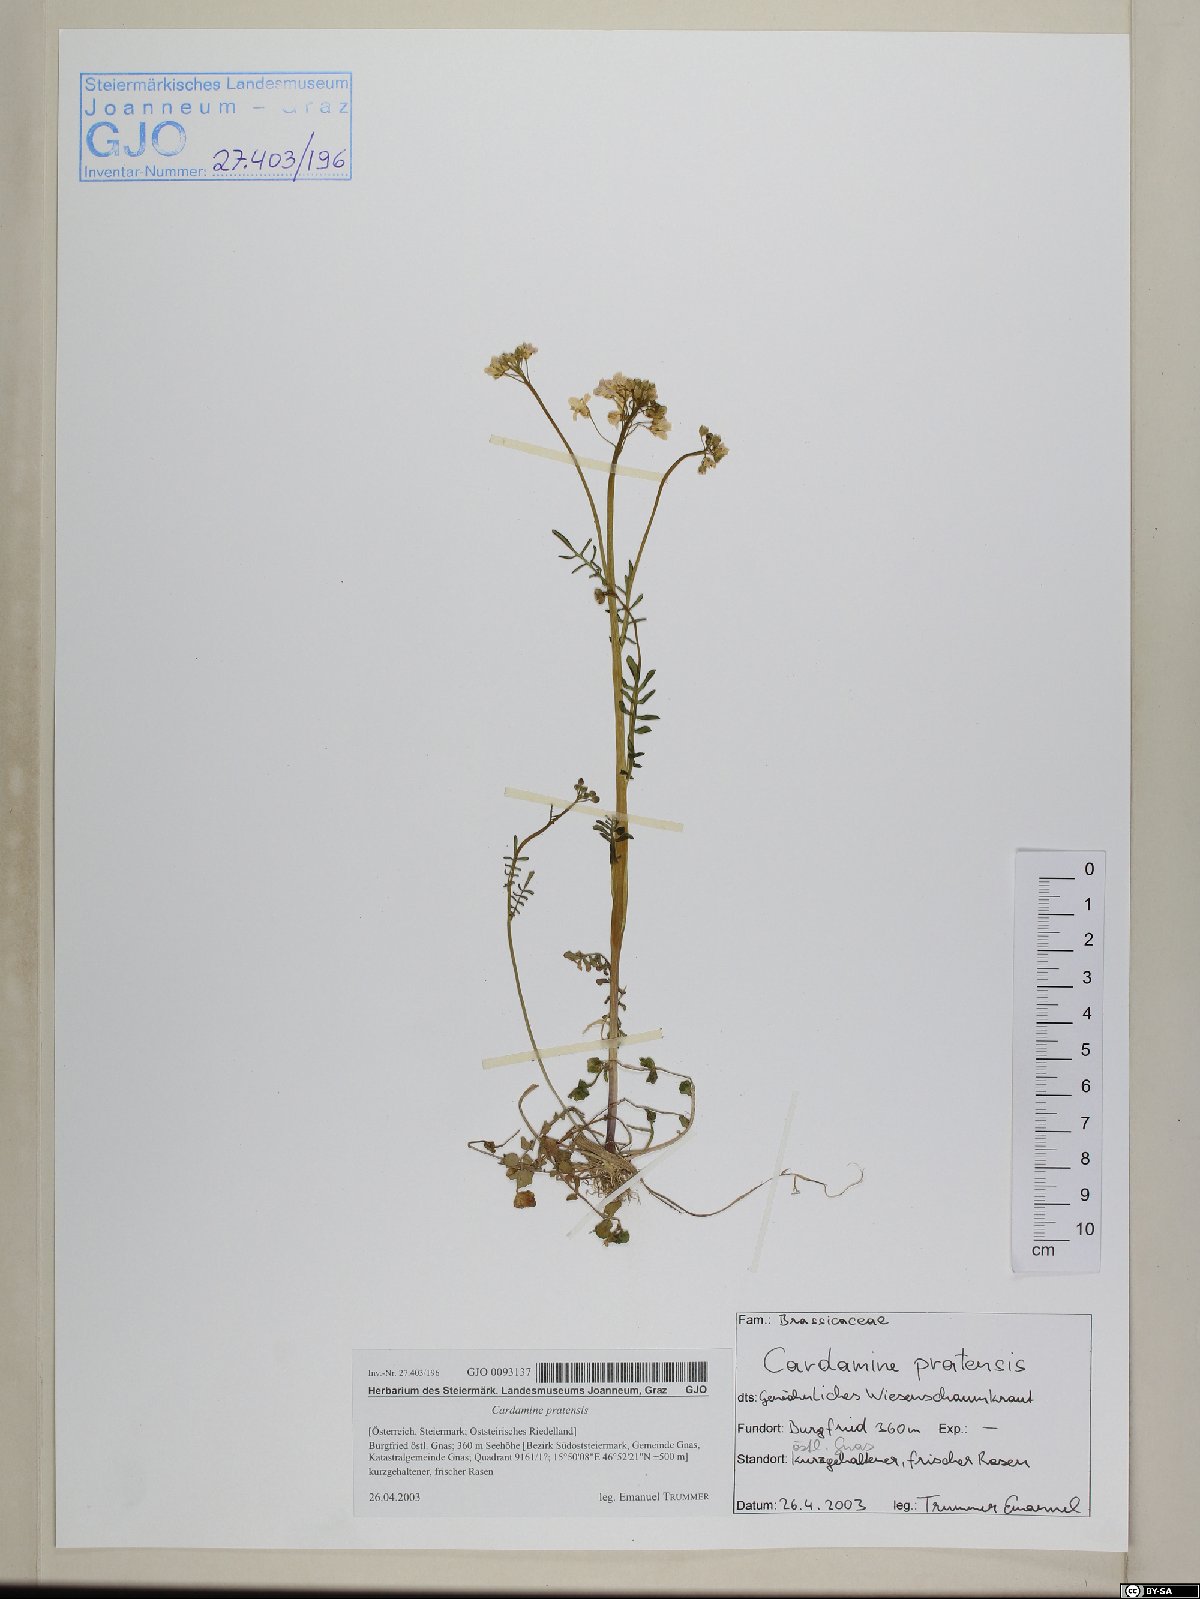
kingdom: Plantae
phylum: Tracheophyta
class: Magnoliopsida
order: Brassicales
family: Brassicaceae
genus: Cardamine
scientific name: Cardamine pratensis
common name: Cuckoo flower
